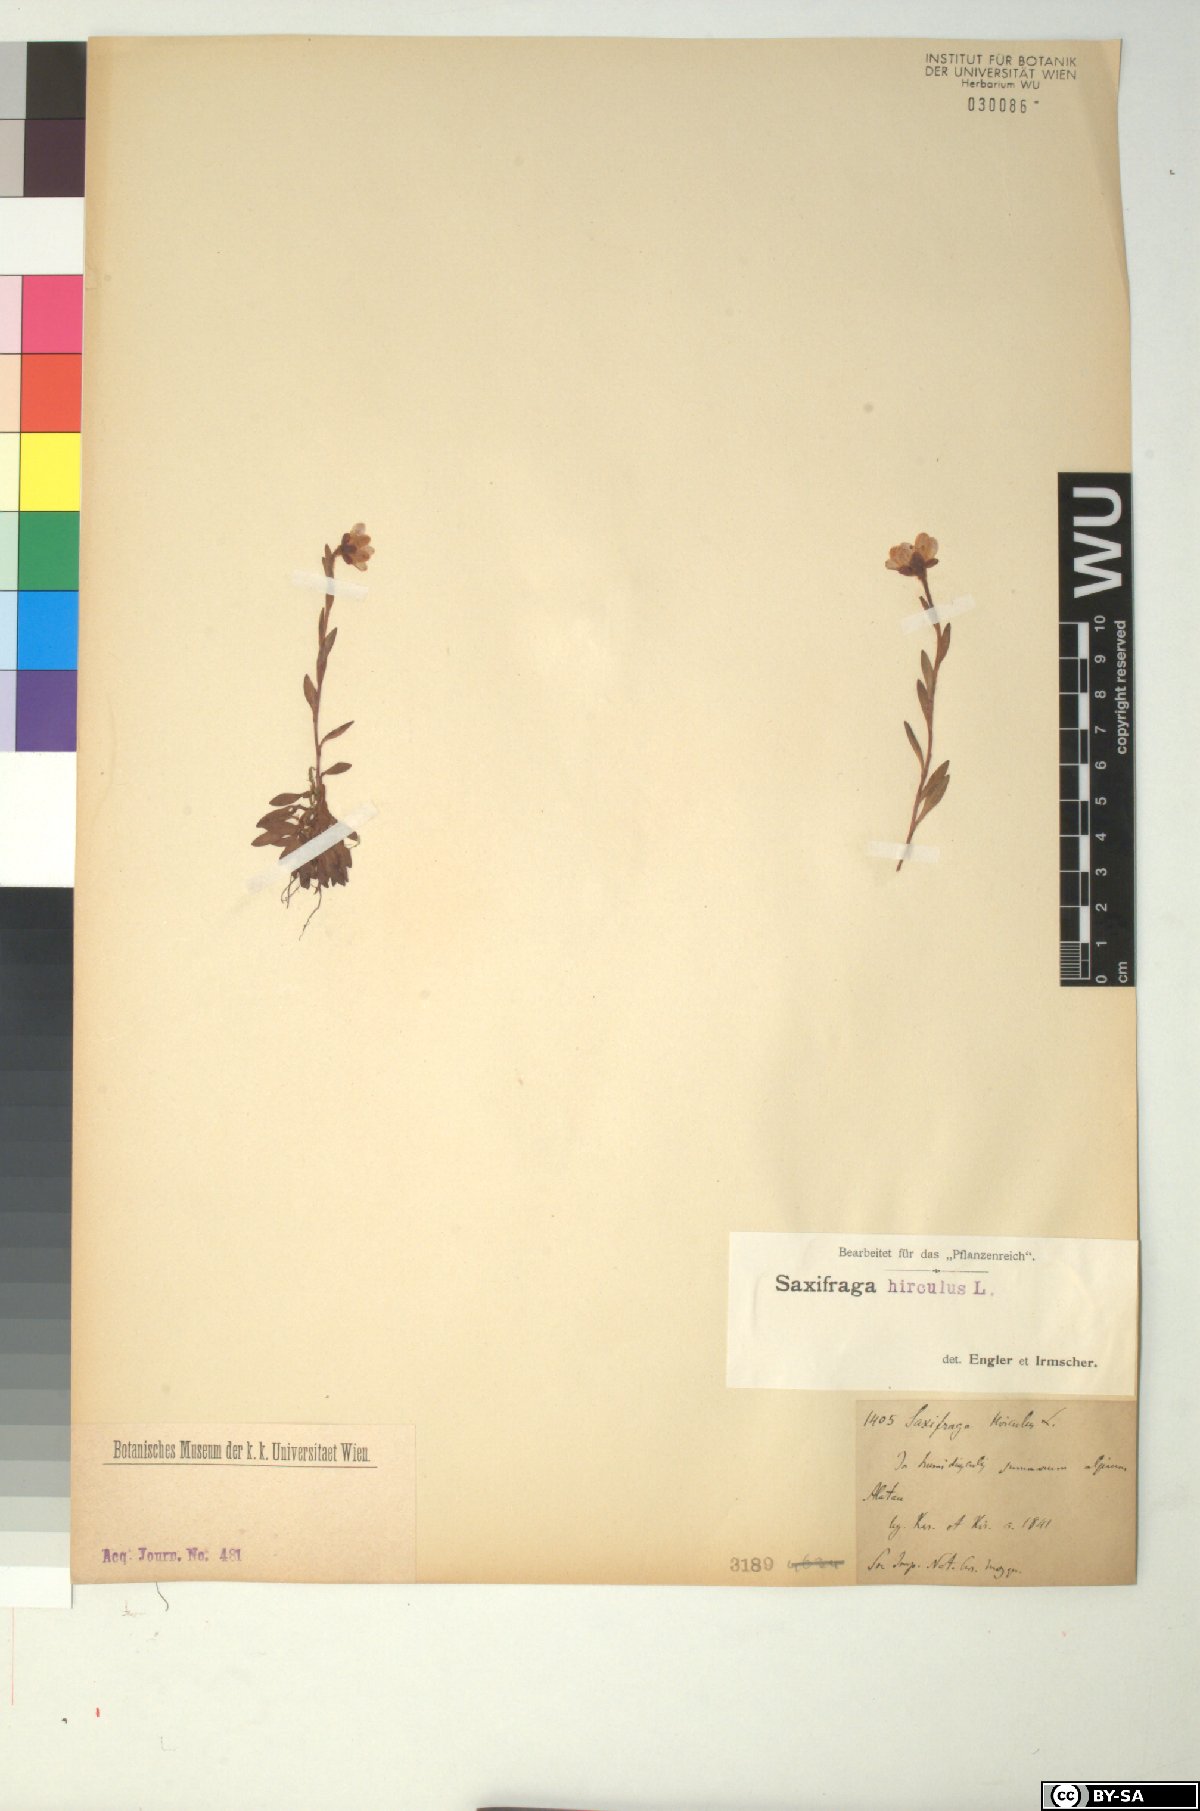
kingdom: Plantae
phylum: Tracheophyta
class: Magnoliopsida
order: Saxifragales
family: Saxifragaceae
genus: Saxifraga
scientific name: Saxifraga hirculus
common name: Yellow marsh saxifrage
